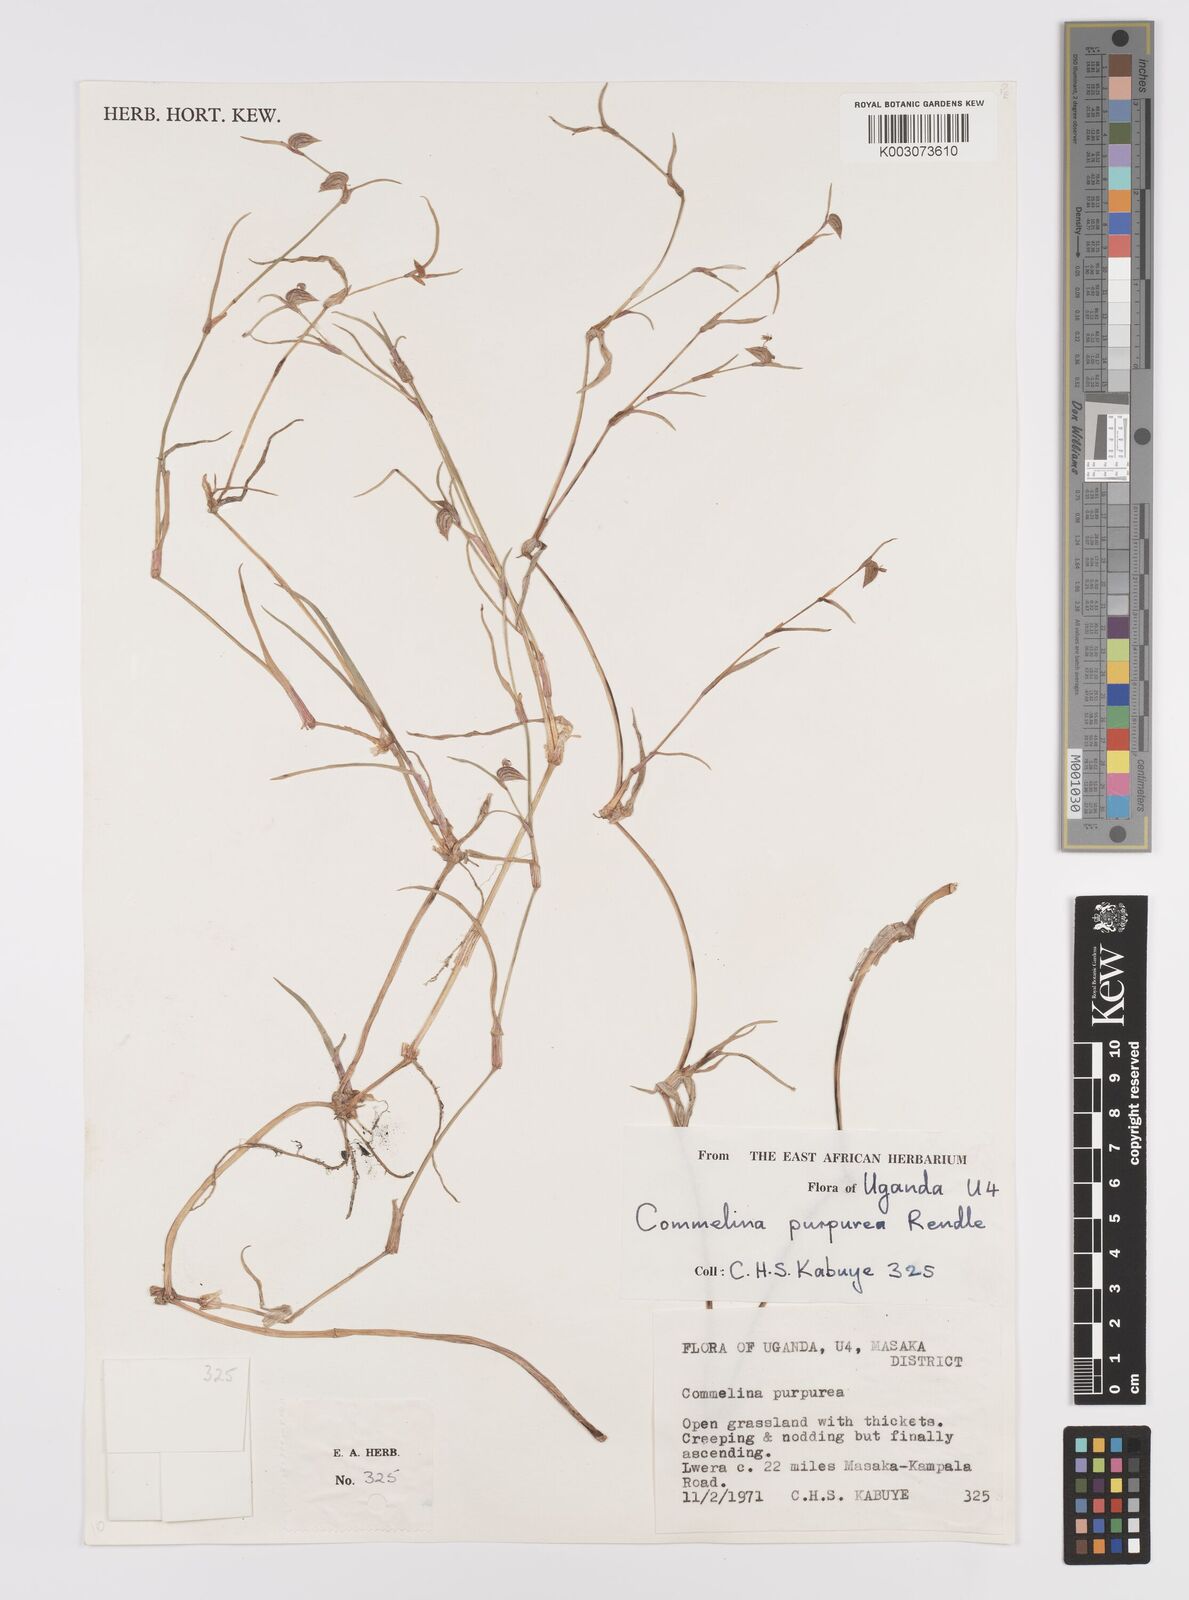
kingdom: Plantae
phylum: Tracheophyta
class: Liliopsida
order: Commelinales
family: Commelinaceae
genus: Commelina
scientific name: Commelina purpurea
